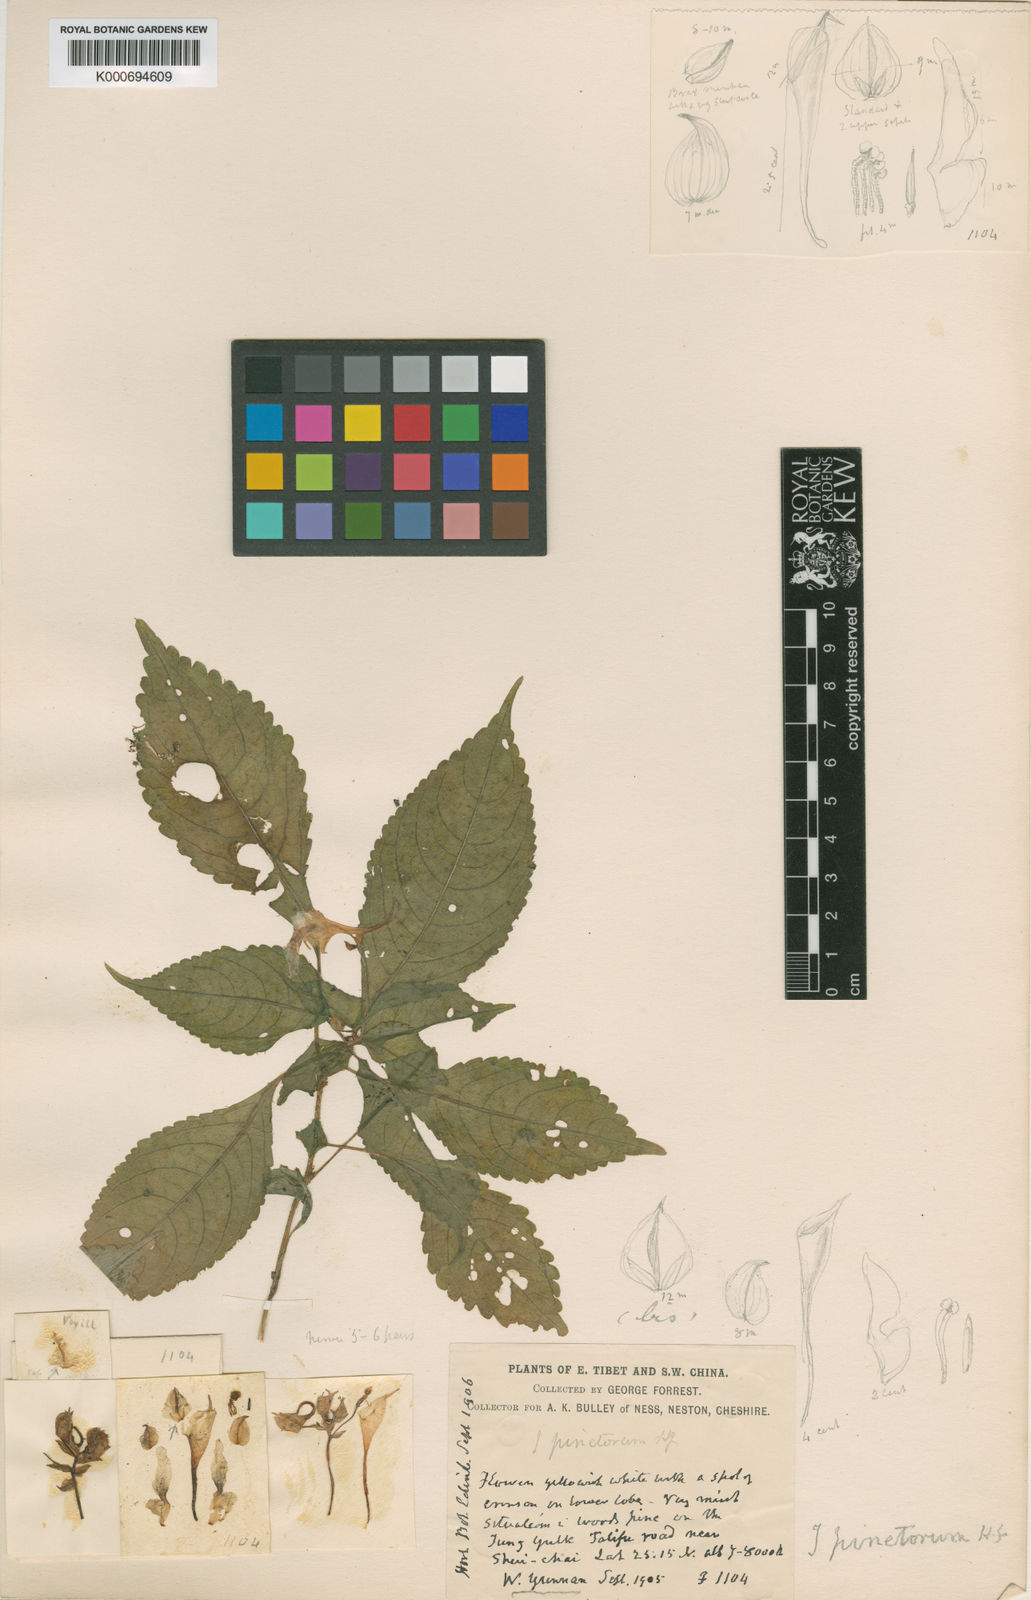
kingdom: Plantae
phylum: Tracheophyta
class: Magnoliopsida
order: Ericales
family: Balsaminaceae
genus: Impatiens
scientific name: Impatiens pinetorum
